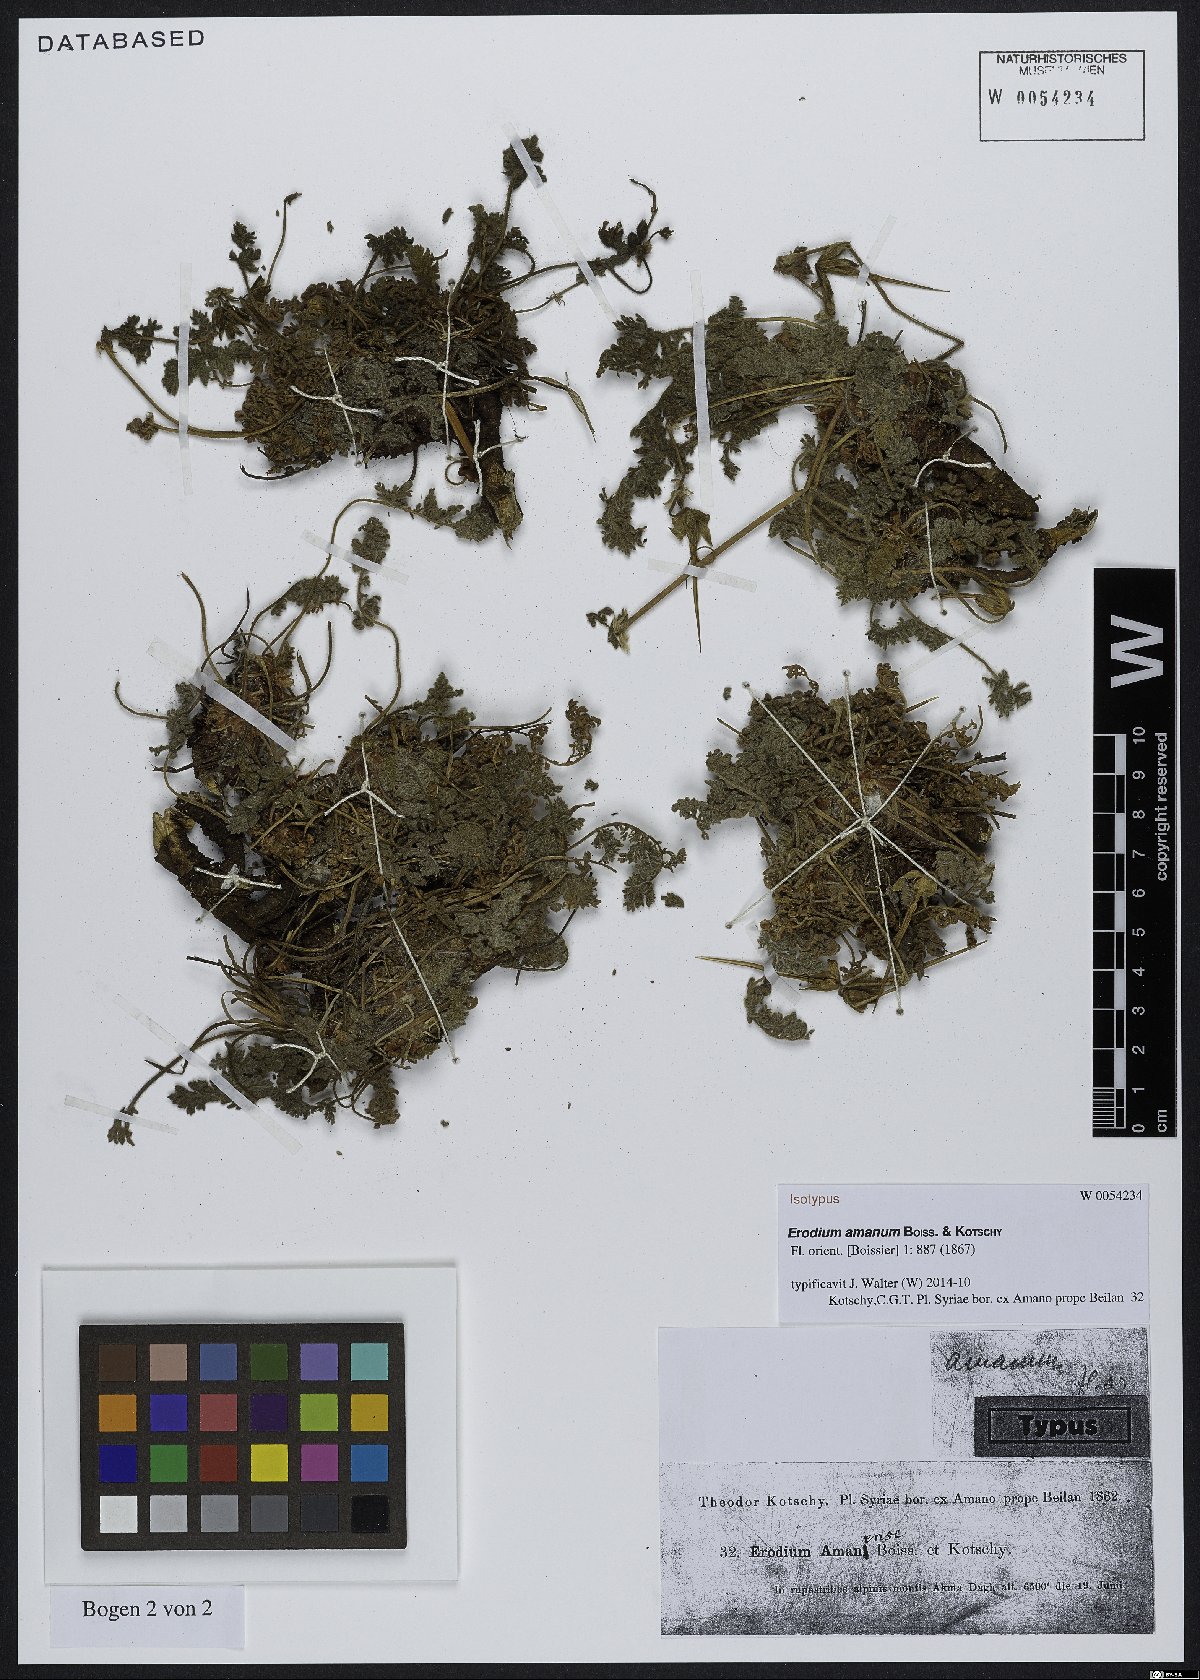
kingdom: Plantae
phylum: Tracheophyta
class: Magnoliopsida
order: Geraniales
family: Geraniaceae
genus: Erodium
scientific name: Erodium trichomanifolium
